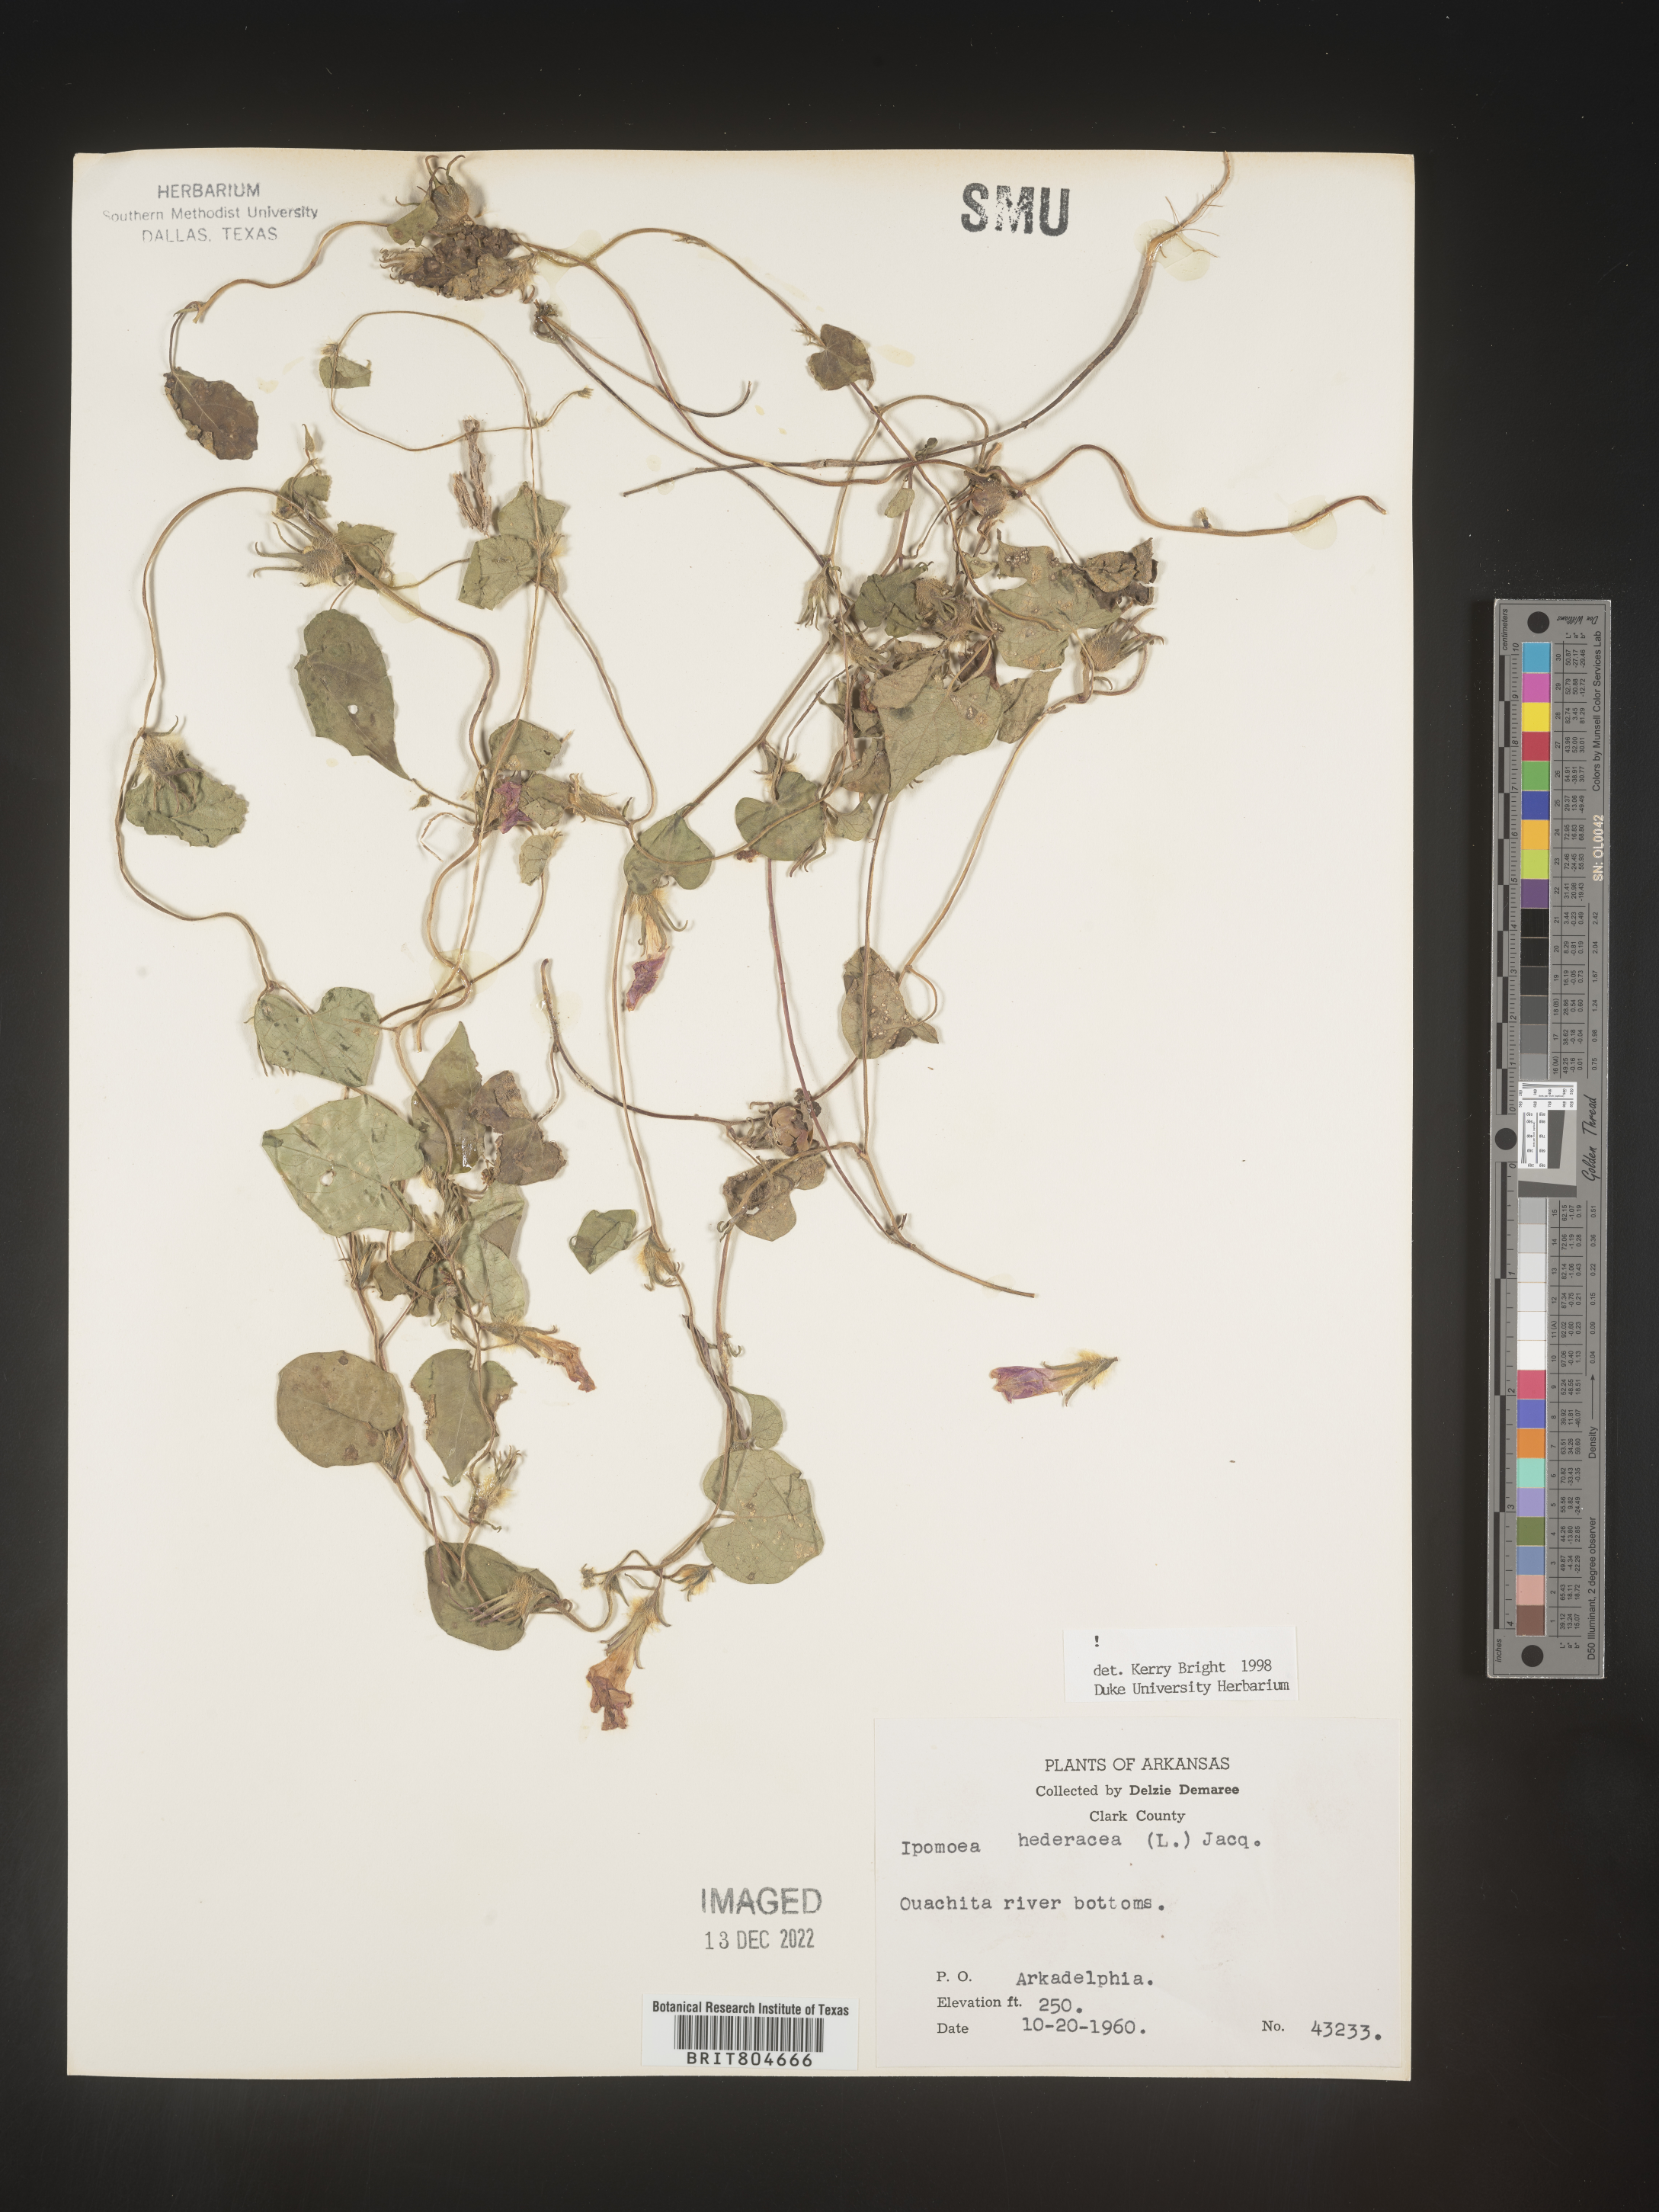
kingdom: Plantae
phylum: Tracheophyta
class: Magnoliopsida
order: Solanales
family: Convolvulaceae
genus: Ipomoea
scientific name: Ipomoea hederacea
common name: Ivy-leaved morning-glory
